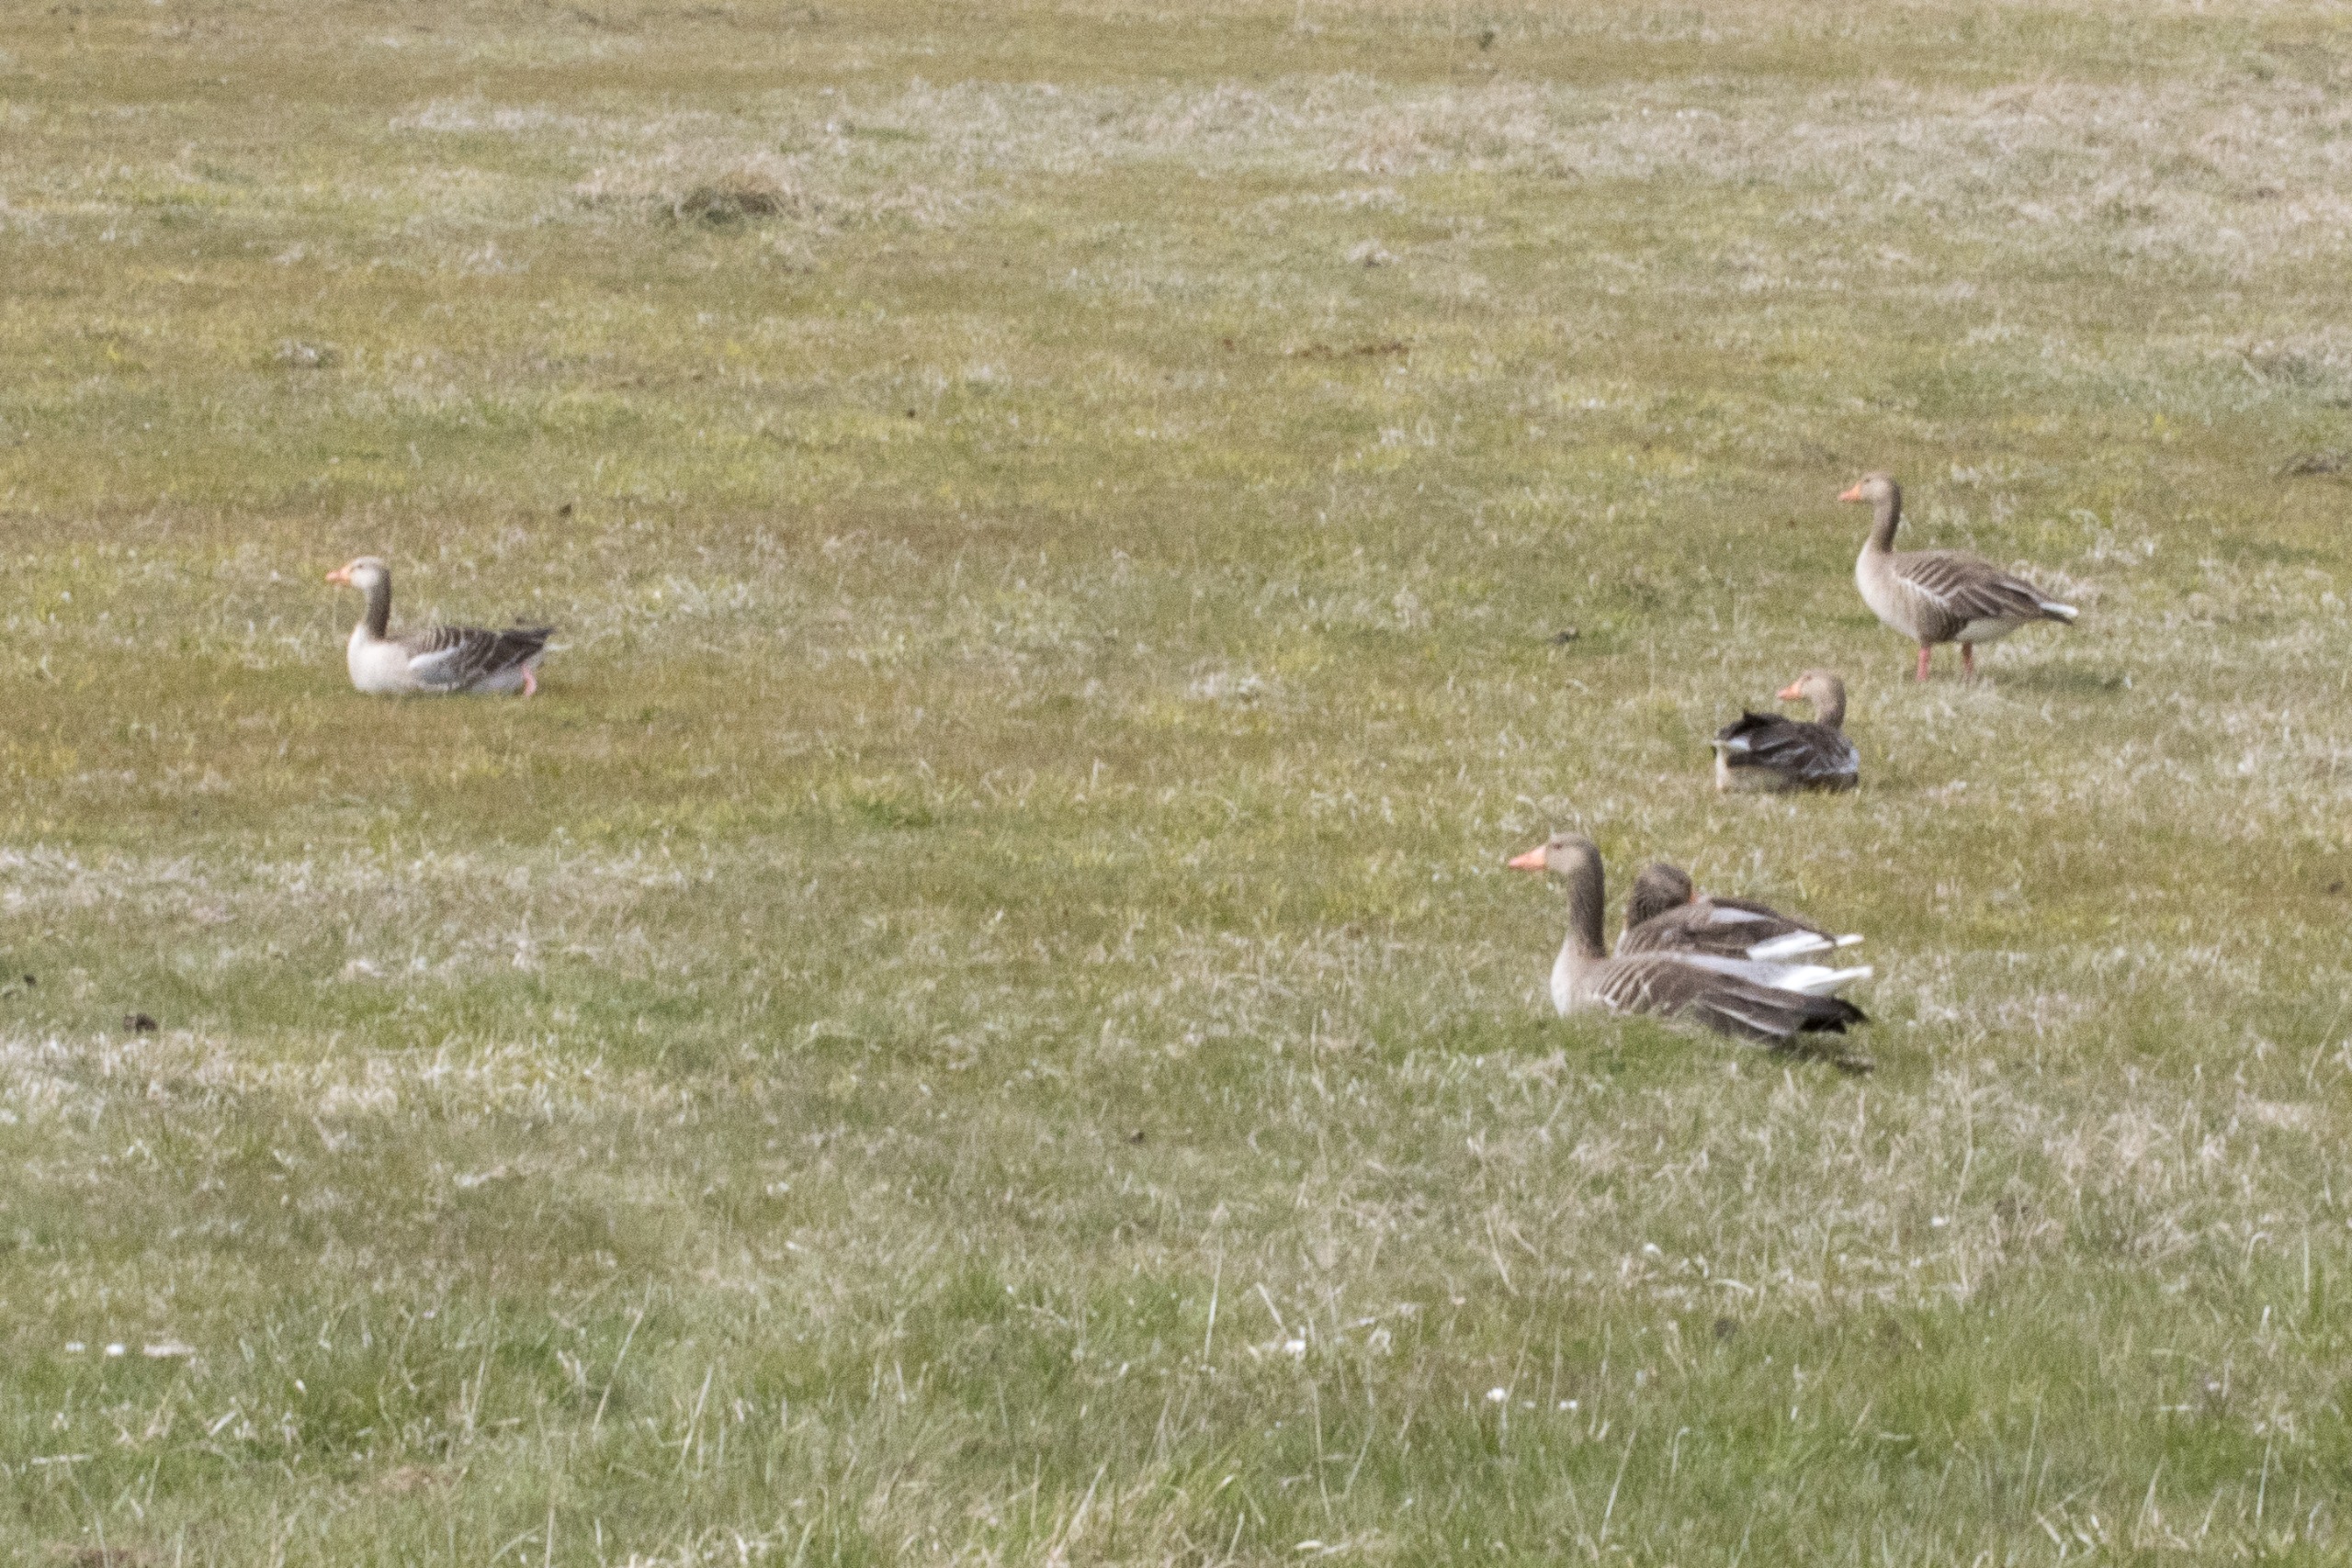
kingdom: Animalia
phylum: Chordata
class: Aves
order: Anseriformes
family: Anatidae
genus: Anser
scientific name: Anser anser
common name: Grågås
